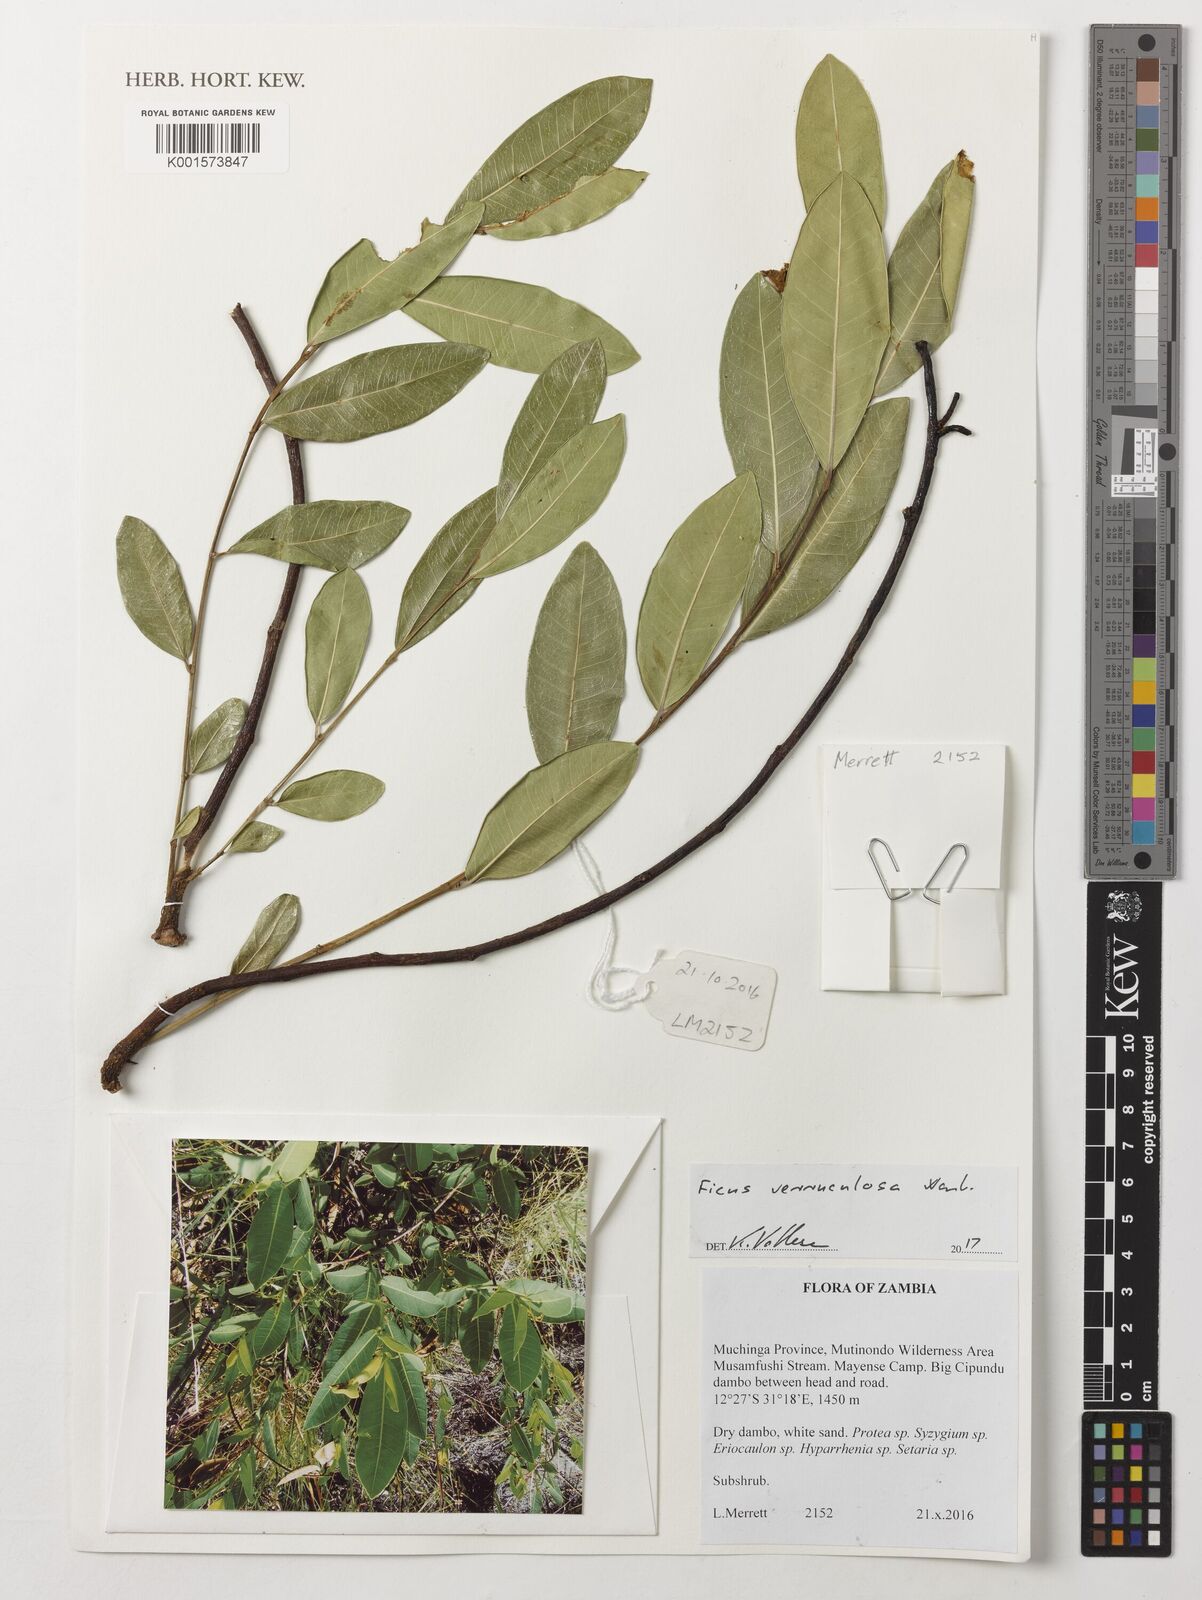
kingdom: Plantae
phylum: Tracheophyta
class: Magnoliopsida
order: Rosales
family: Moraceae
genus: Ficus
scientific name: Ficus verruculosa
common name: Water fig
